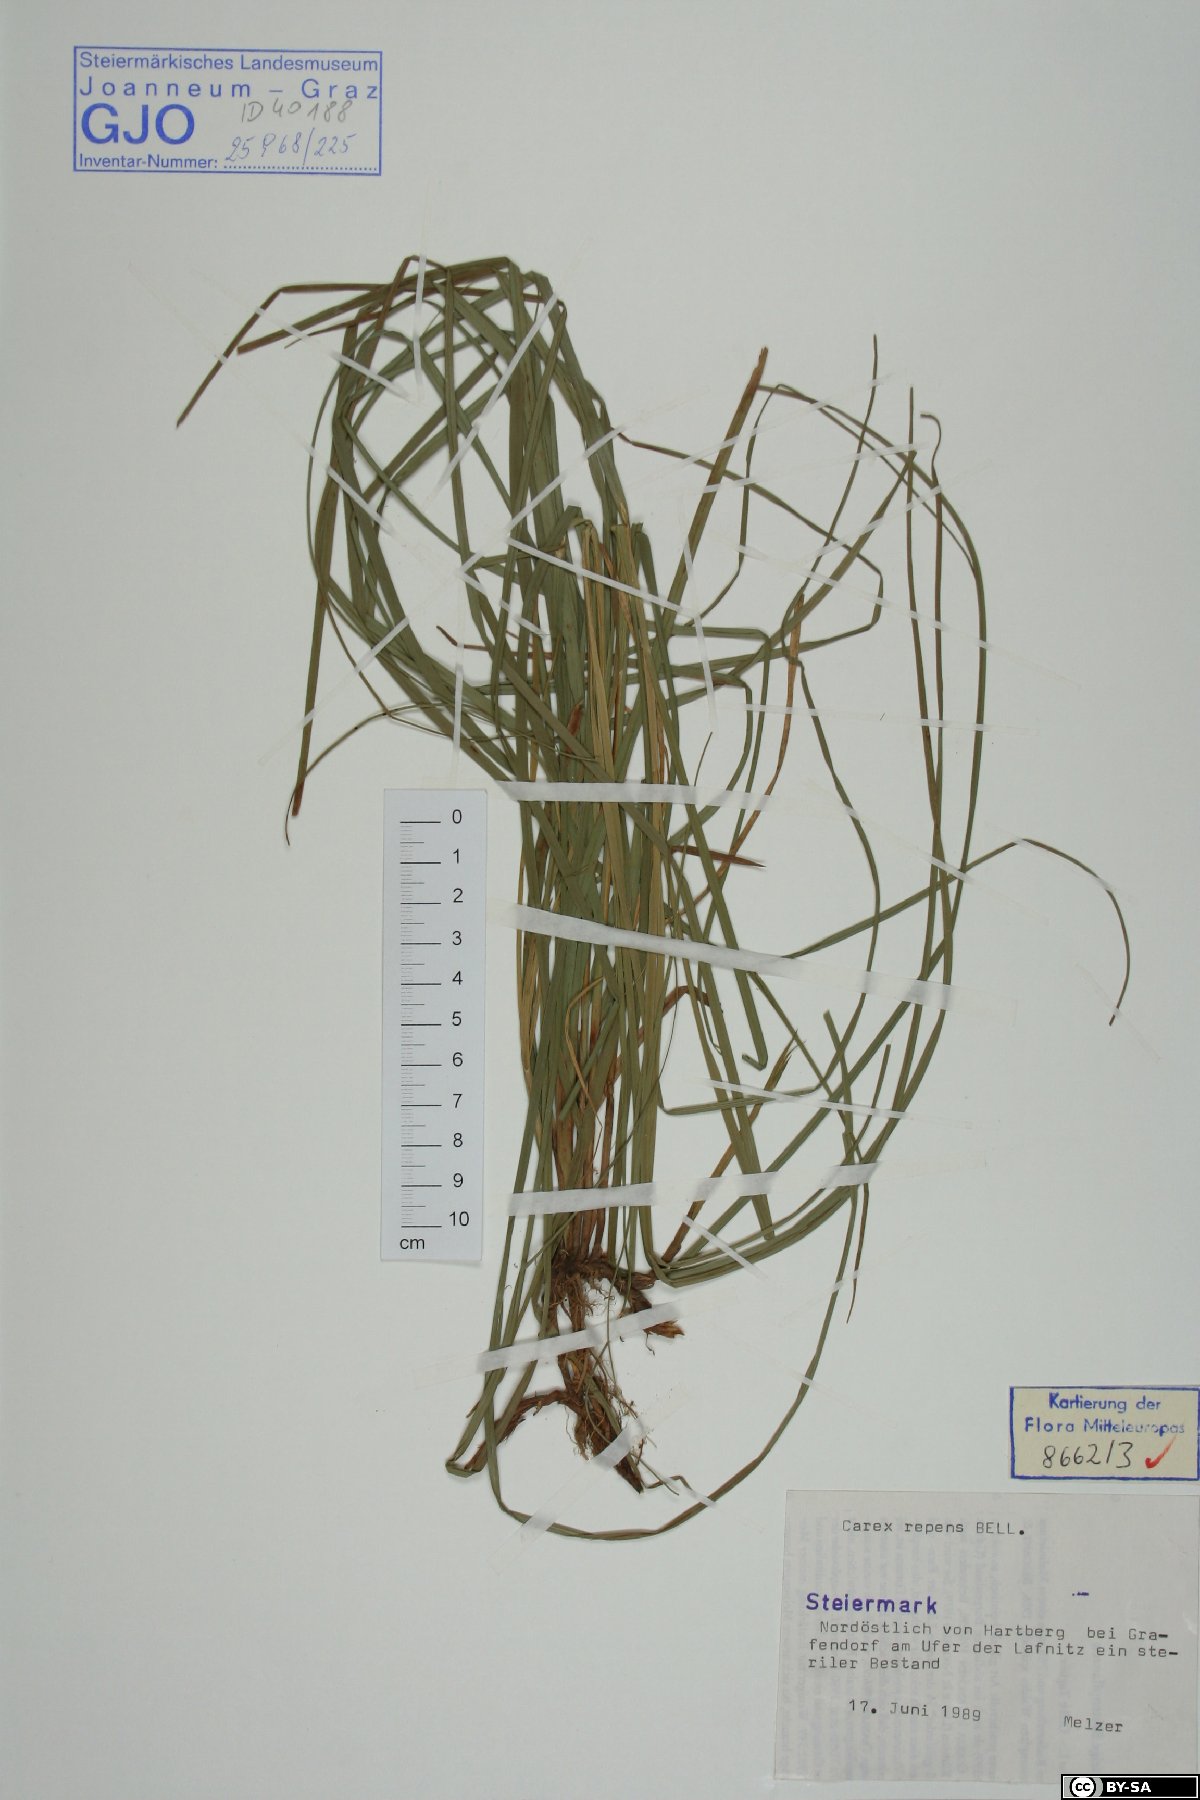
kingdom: Plantae
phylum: Tracheophyta
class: Liliopsida
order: Poales
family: Cyperaceae
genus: Carex
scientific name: Carex repens
